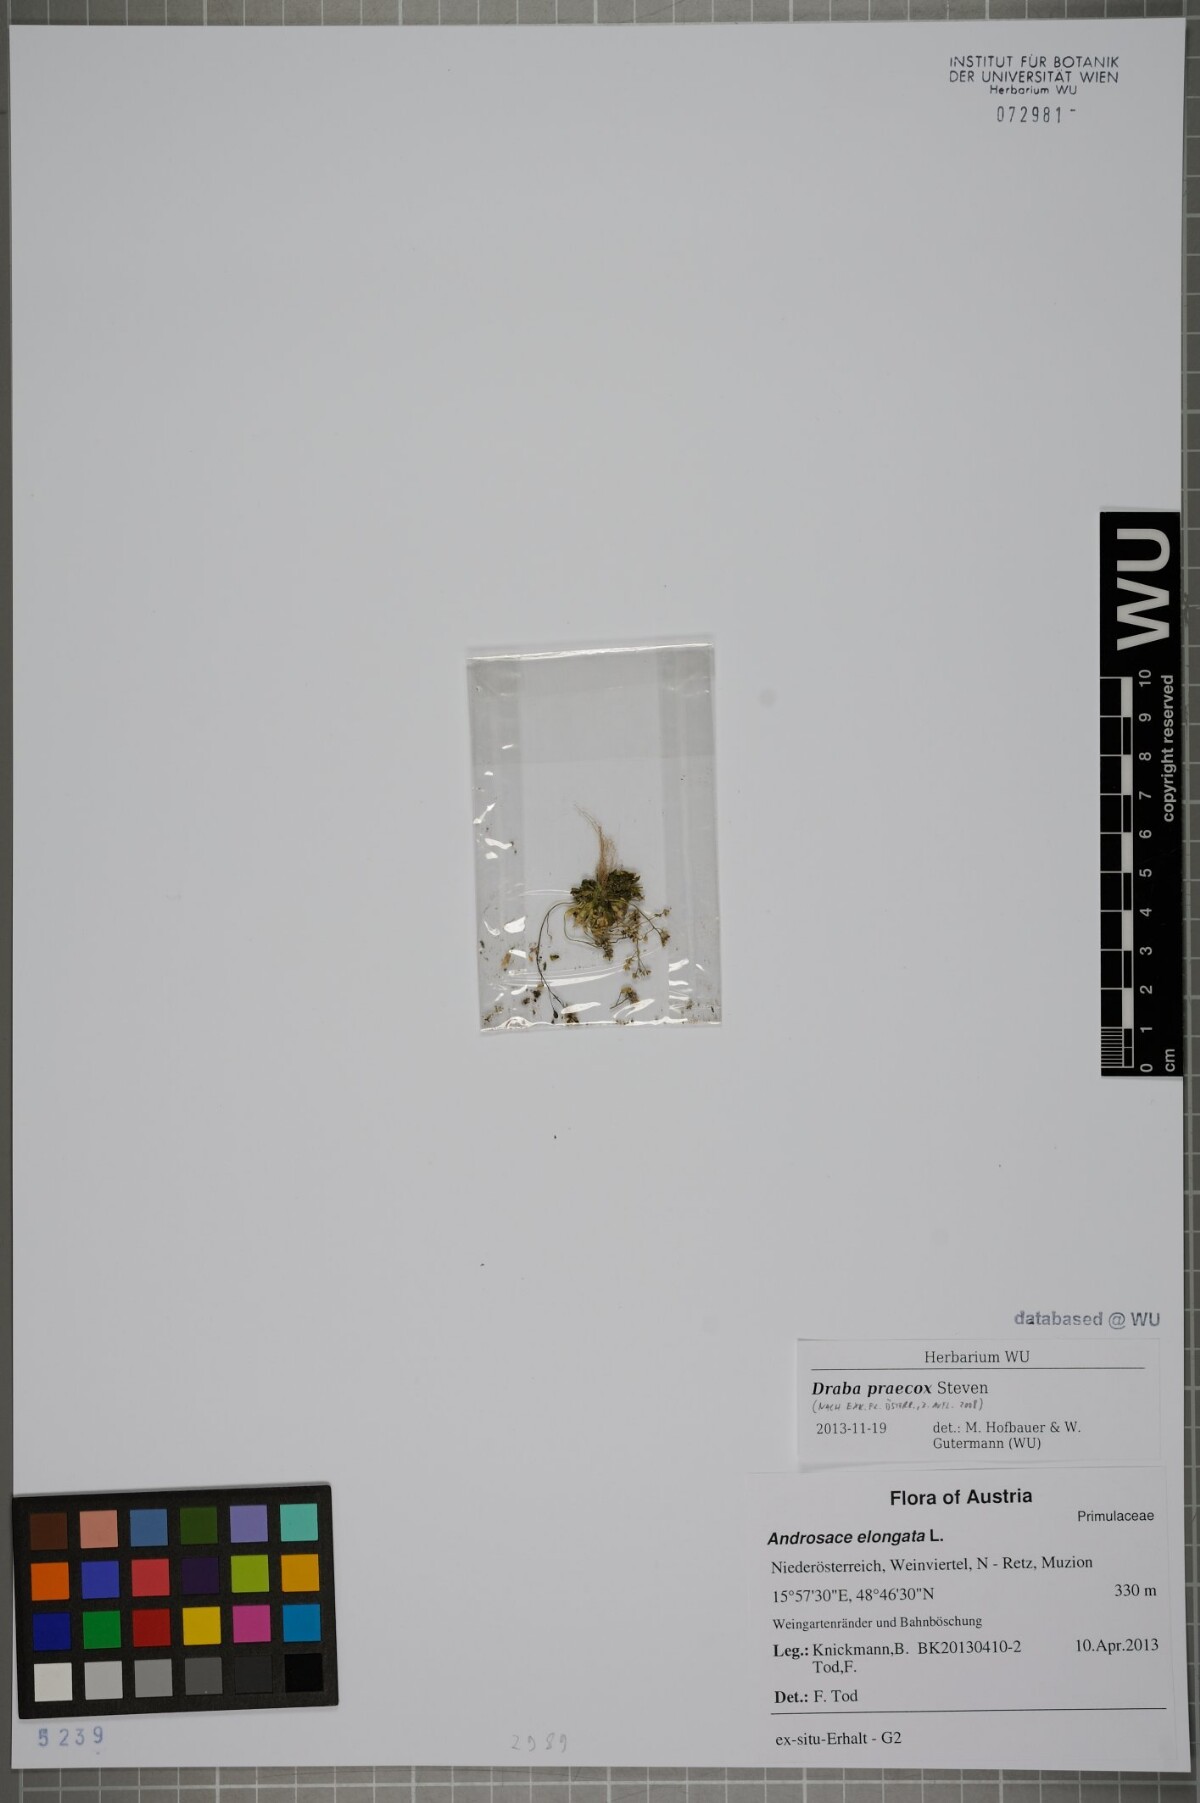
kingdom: Plantae
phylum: Tracheophyta
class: Magnoliopsida
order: Brassicales
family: Brassicaceae
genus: Draba
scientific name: Draba verna
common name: Spring draba
